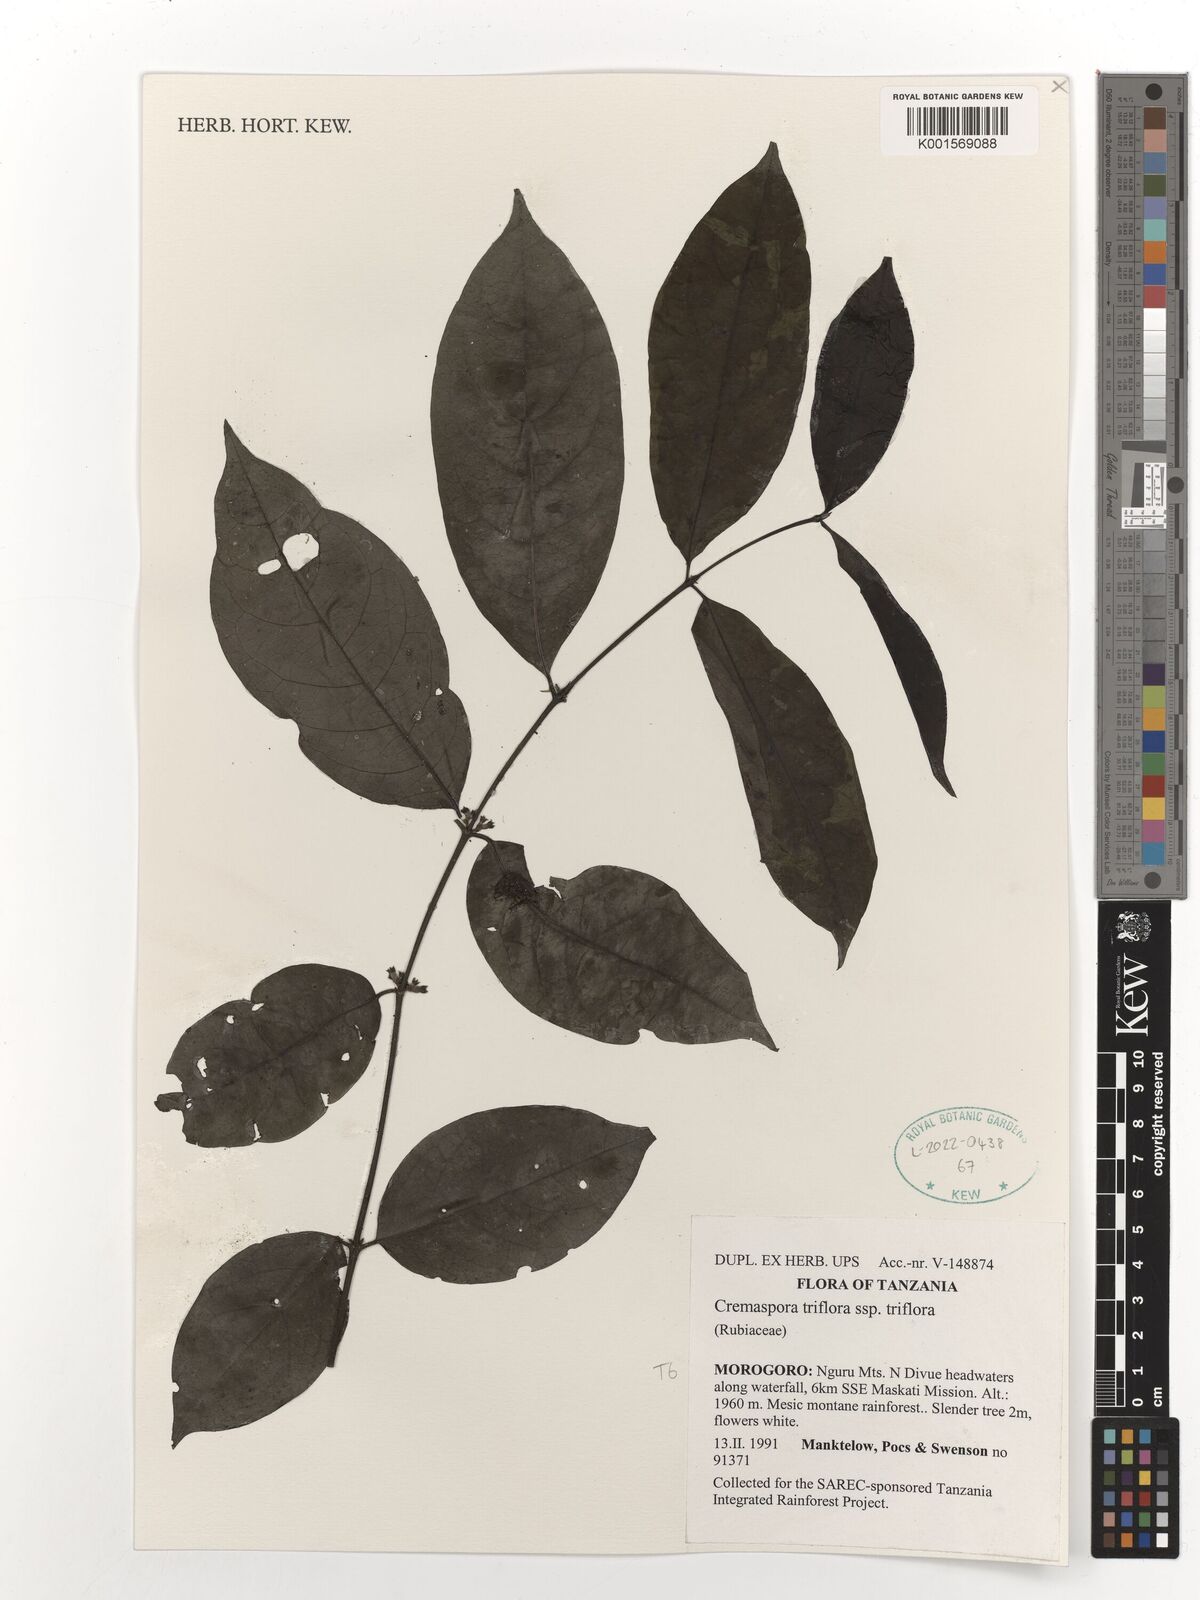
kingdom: Plantae
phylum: Tracheophyta
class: Magnoliopsida
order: Gentianales
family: Rubiaceae
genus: Cremaspora
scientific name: Cremaspora triflora
